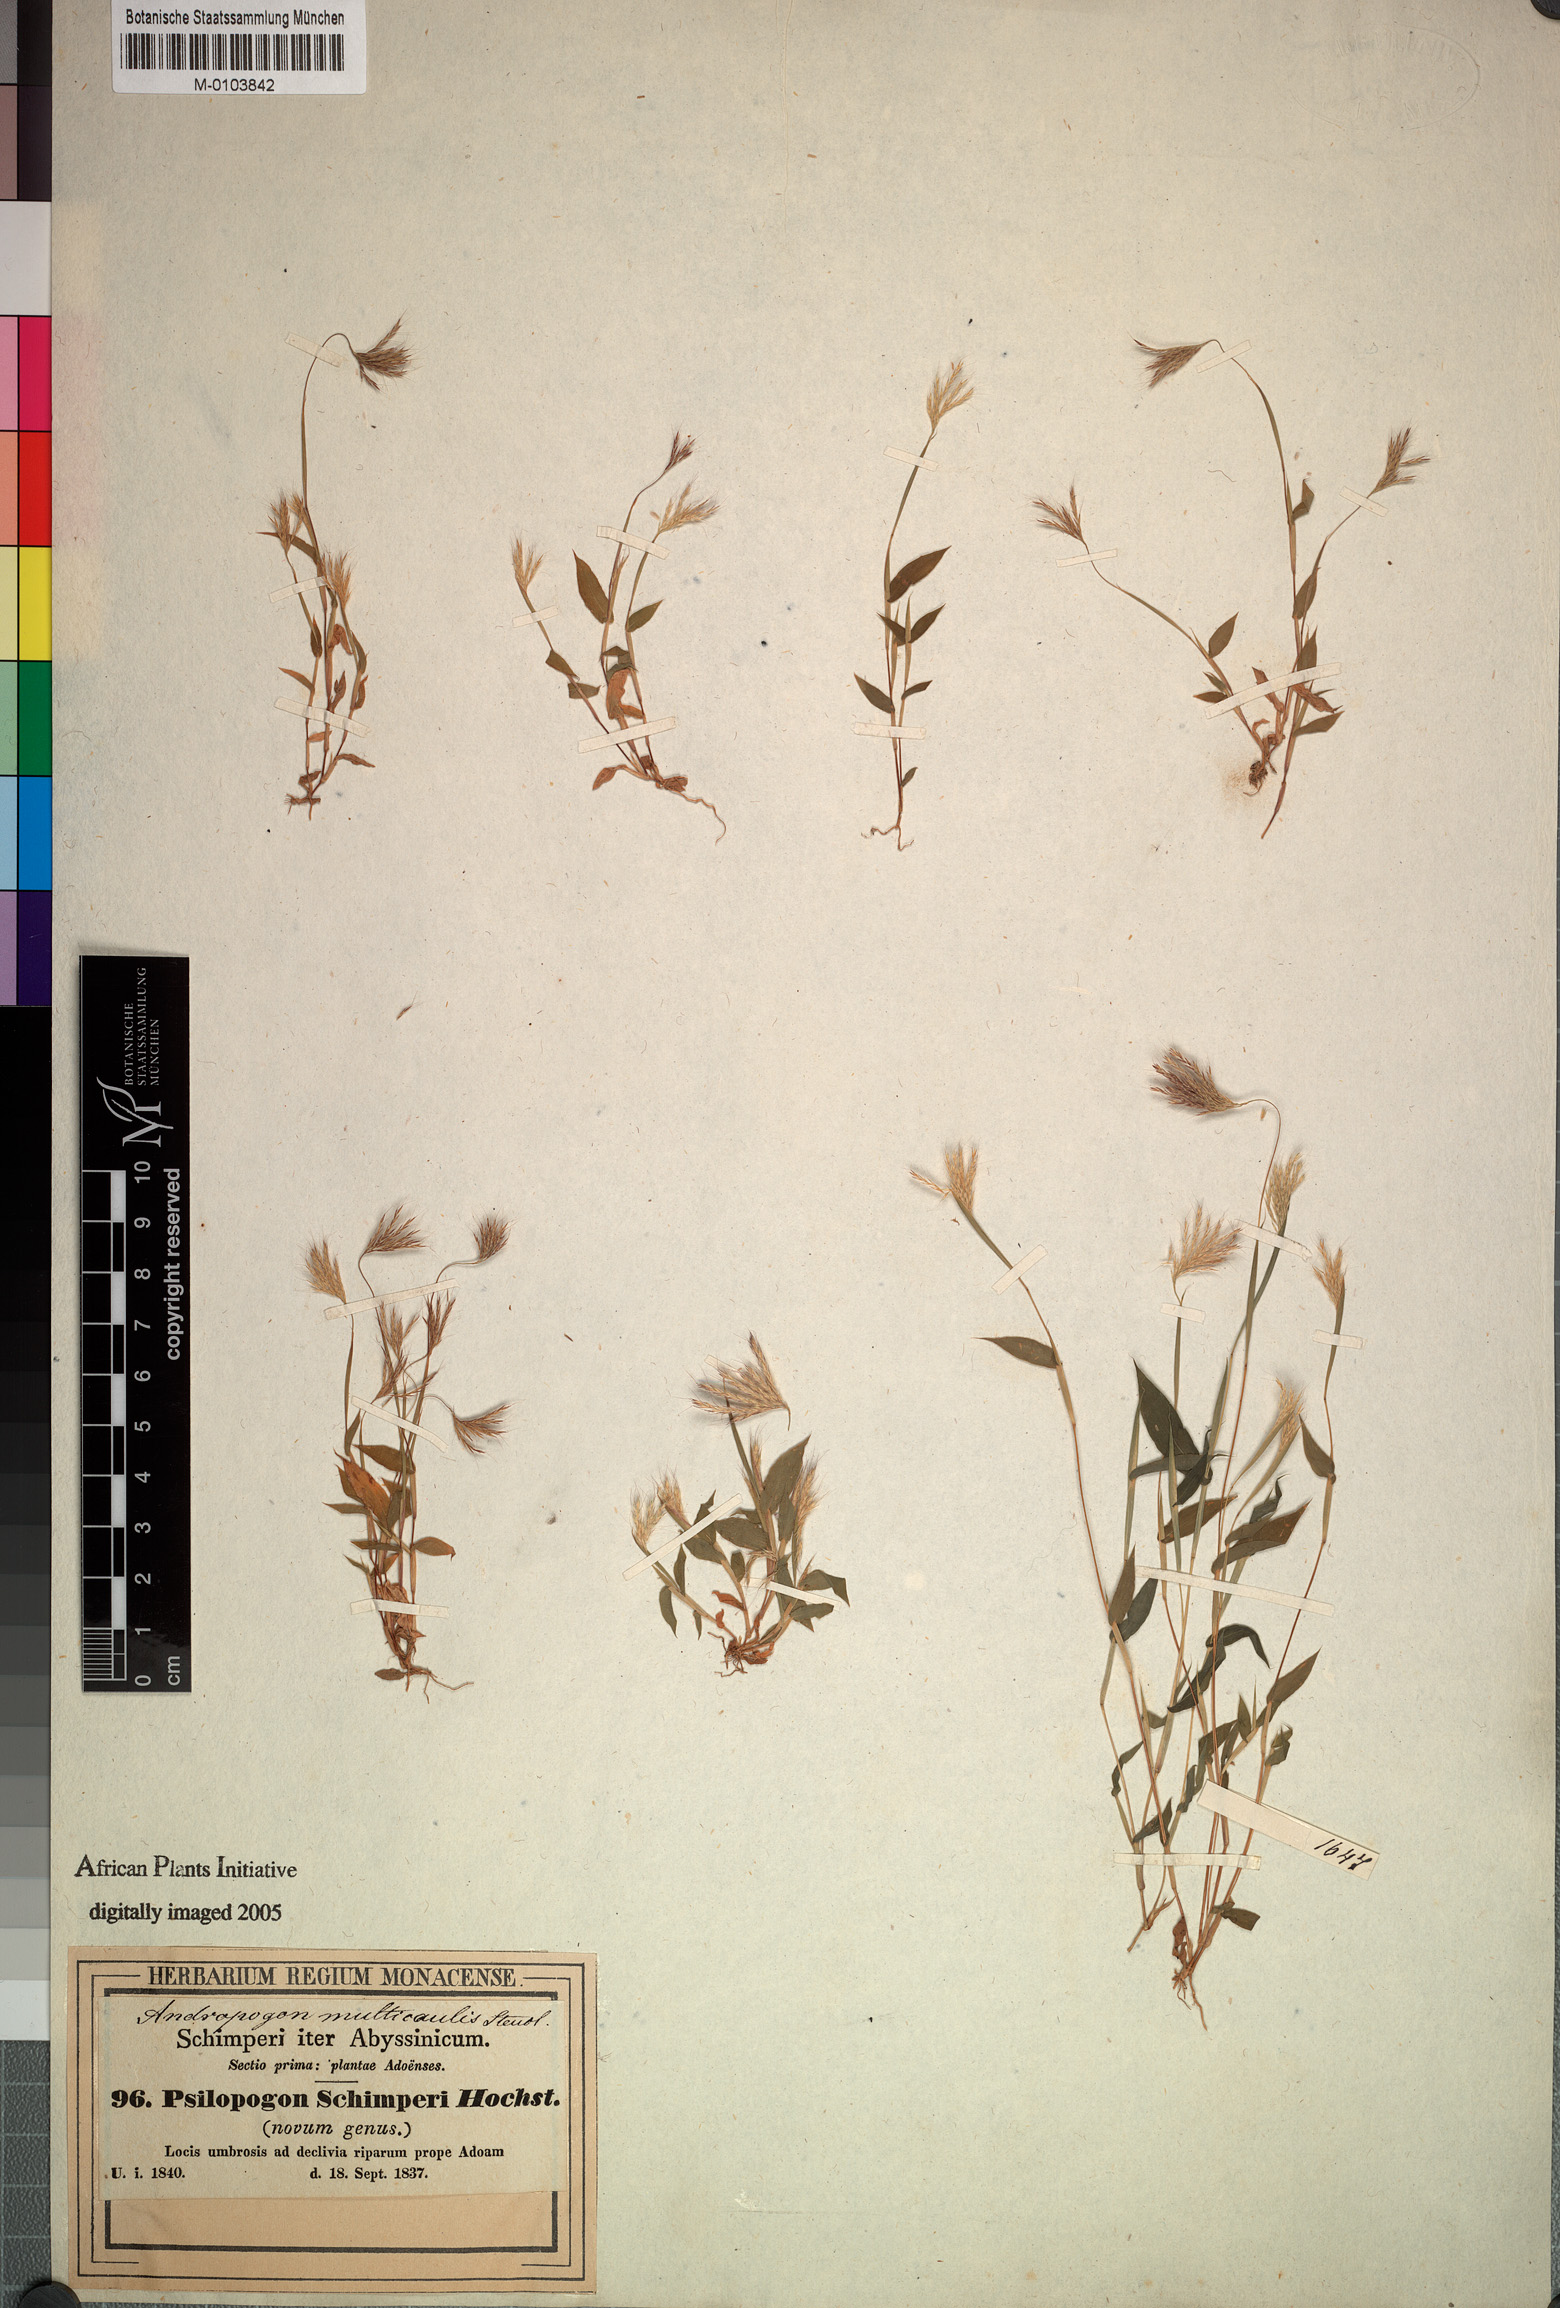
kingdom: Plantae
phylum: Tracheophyta
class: Liliopsida
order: Poales
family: Poaceae
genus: Arthraxon
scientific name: Arthraxon lancifolius
